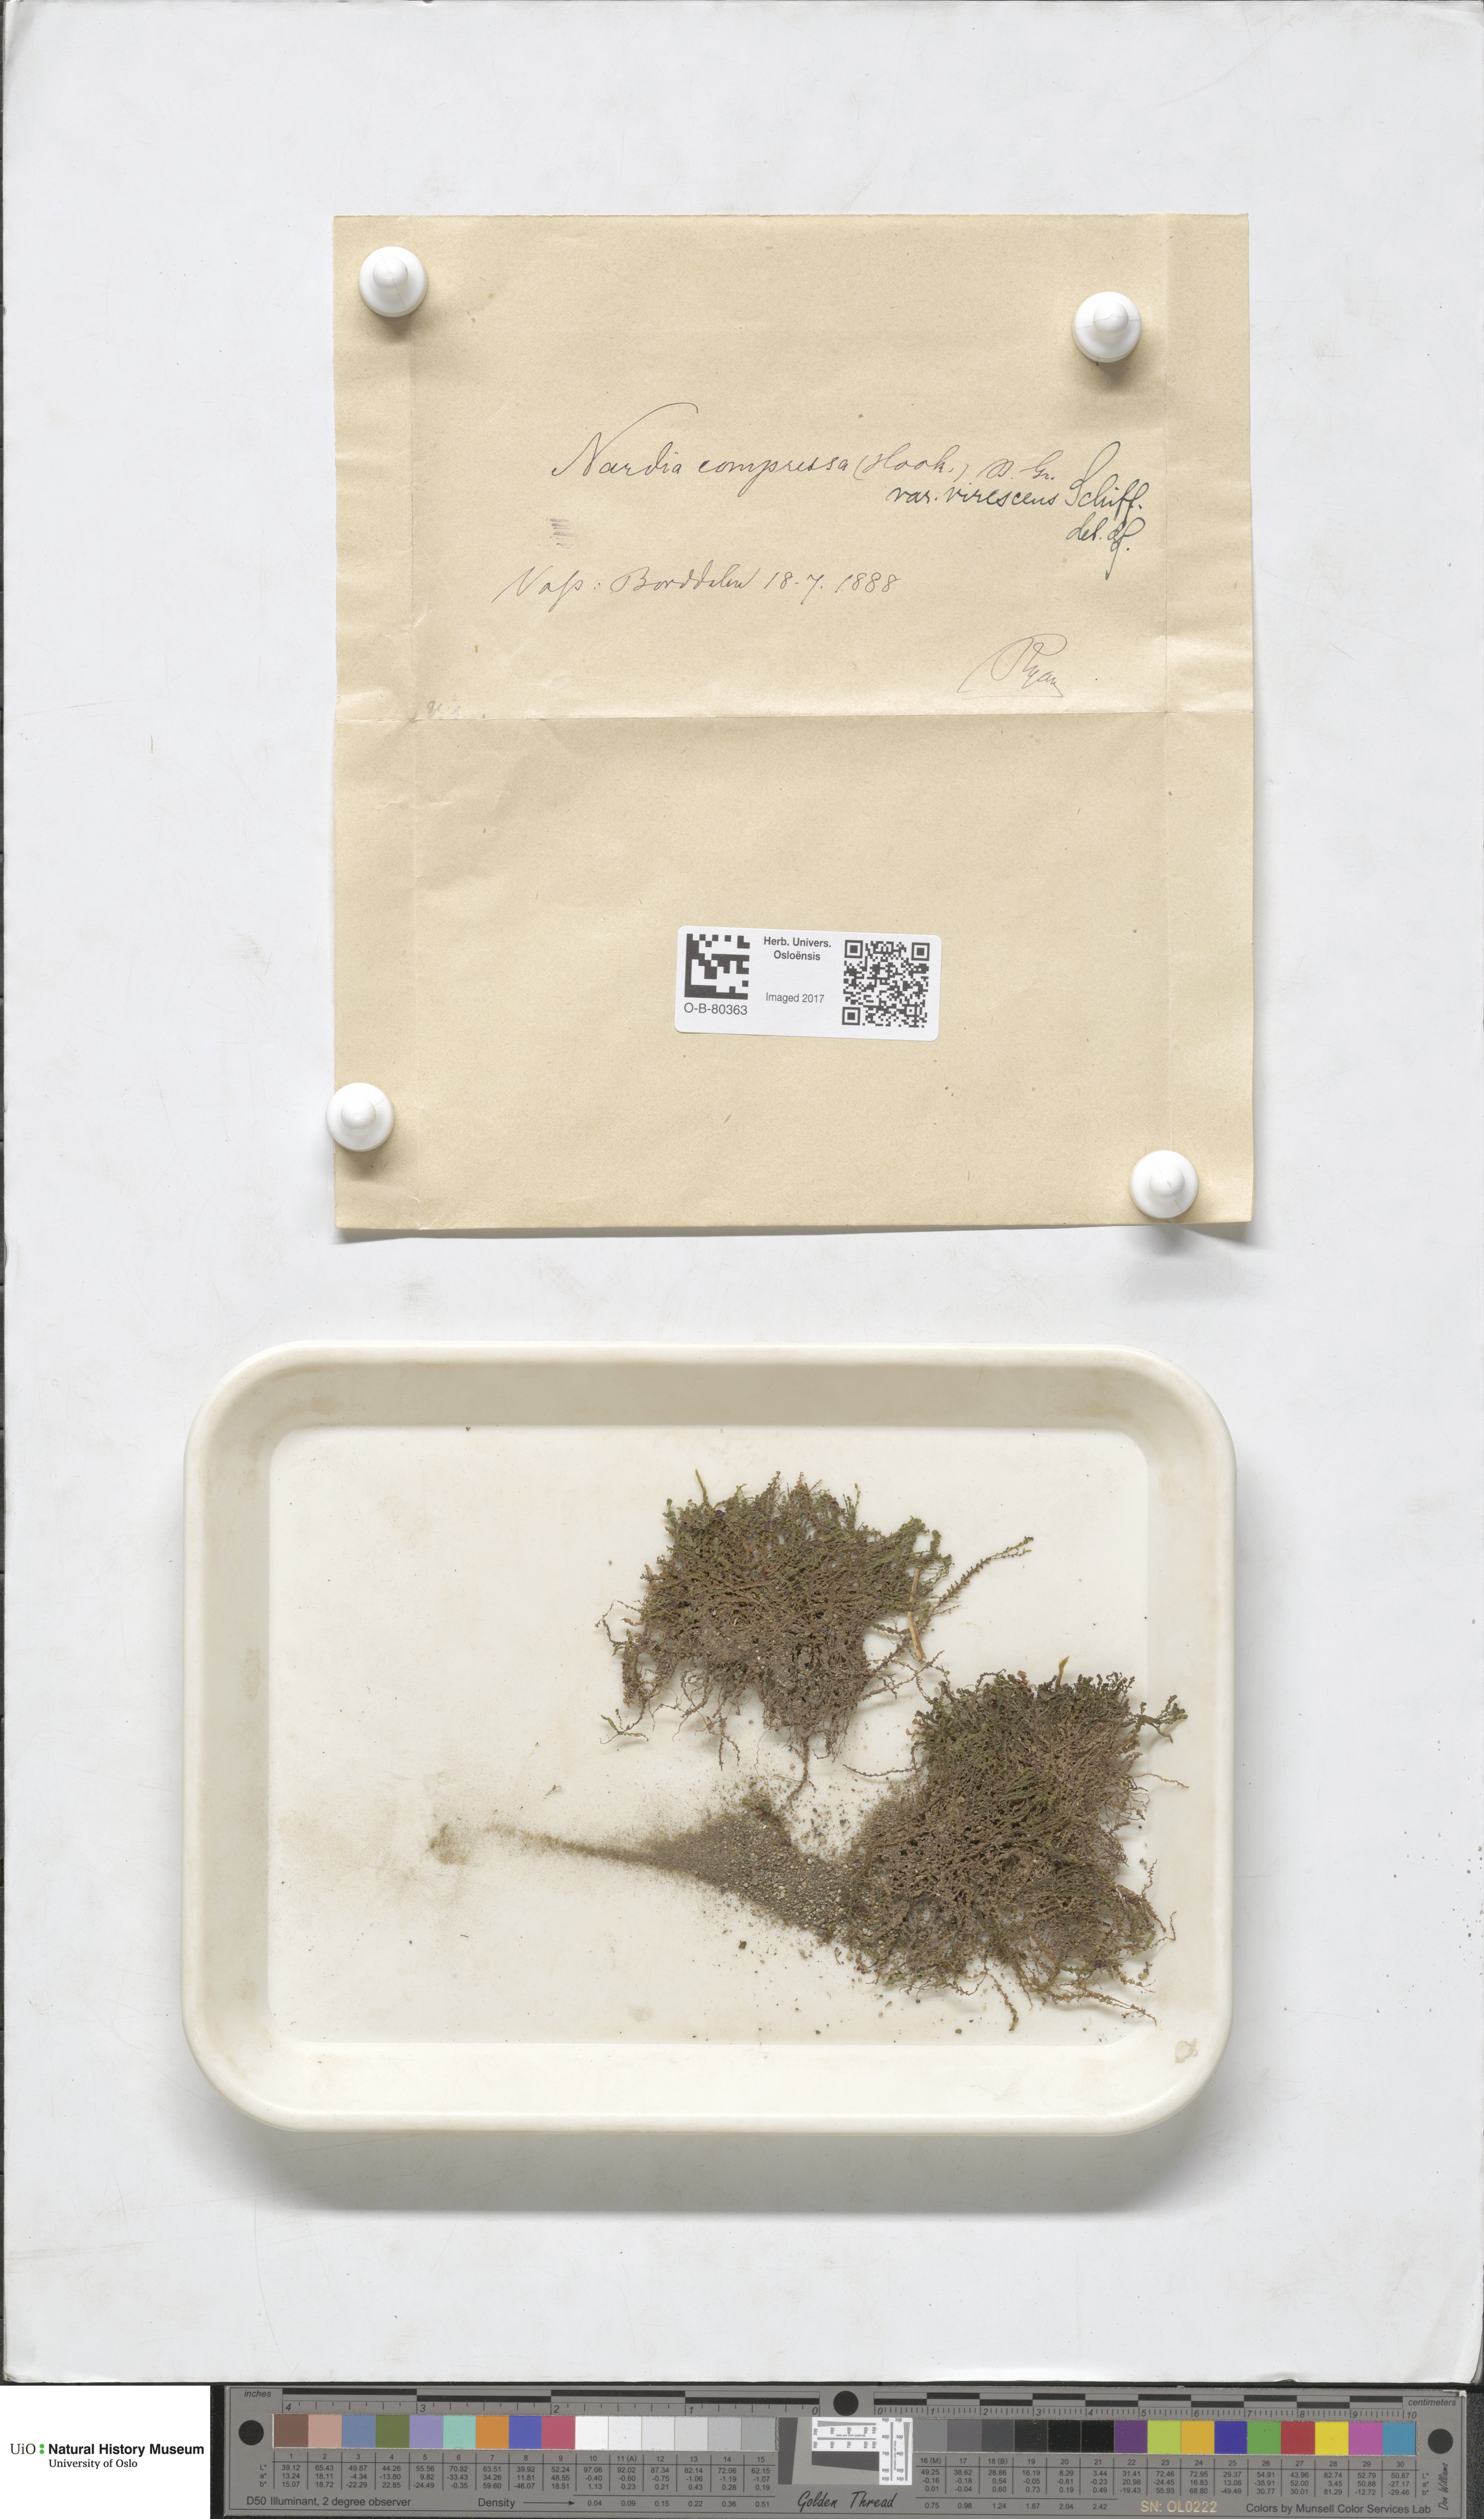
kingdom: Plantae
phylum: Marchantiophyta
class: Jungermanniopsida
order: Jungermanniales
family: Gymnomitriaceae
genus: Nardia
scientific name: Nardia compressa
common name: Compressed flapwort
